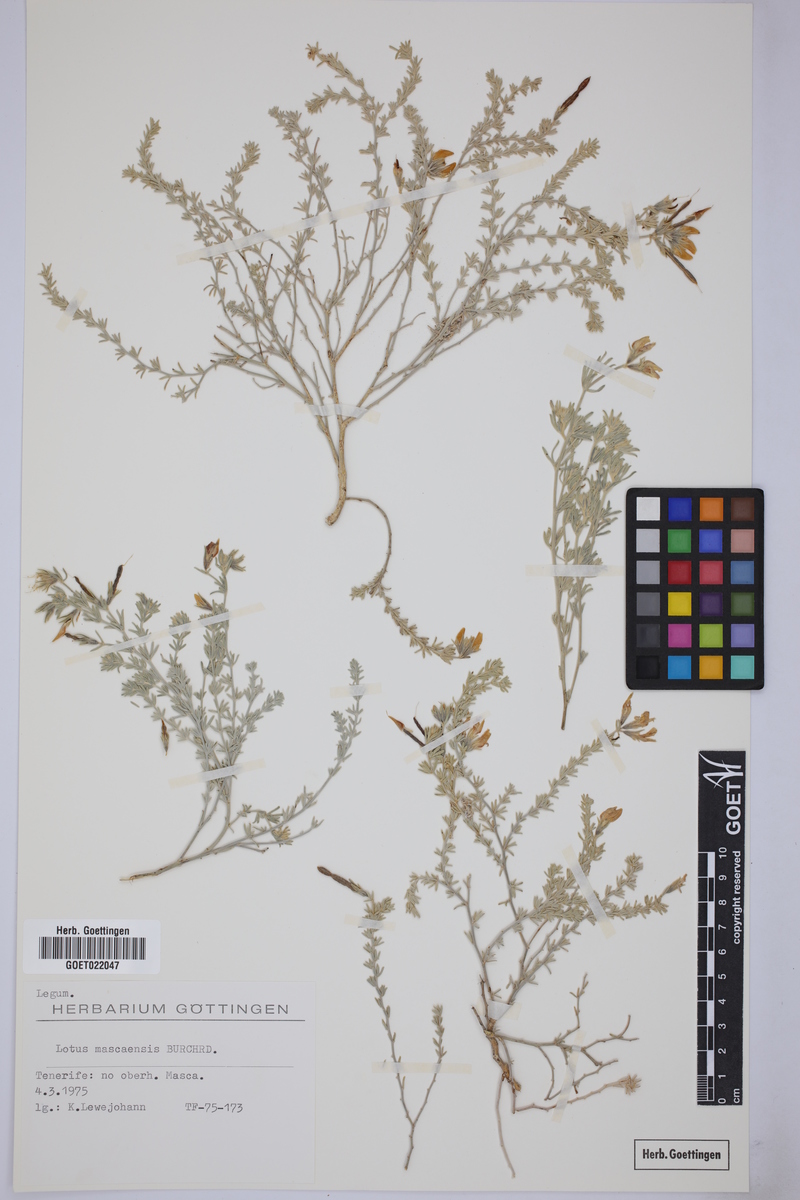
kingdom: Plantae
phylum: Tracheophyta
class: Magnoliopsida
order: Fabales
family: Fabaceae
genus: Lotus
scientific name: Lotus mascaensis
